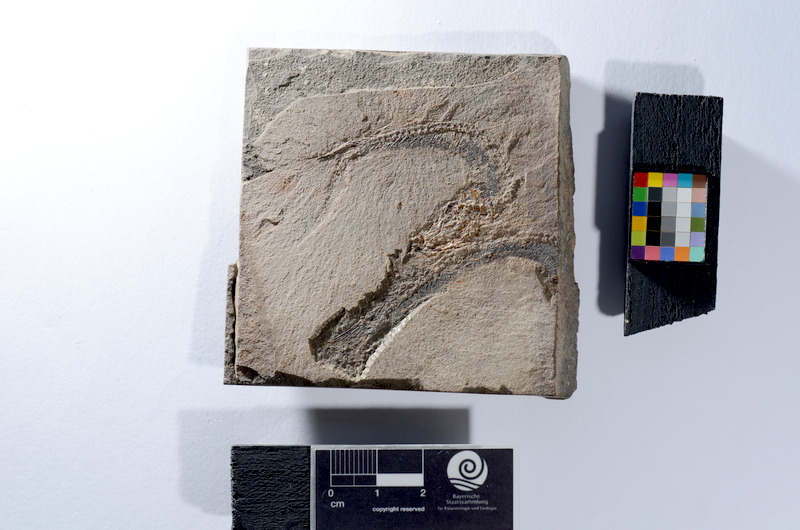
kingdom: Animalia
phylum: Chordata
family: Leptolepididae
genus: Leptolepis
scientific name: Leptolepis coryphaenoides
